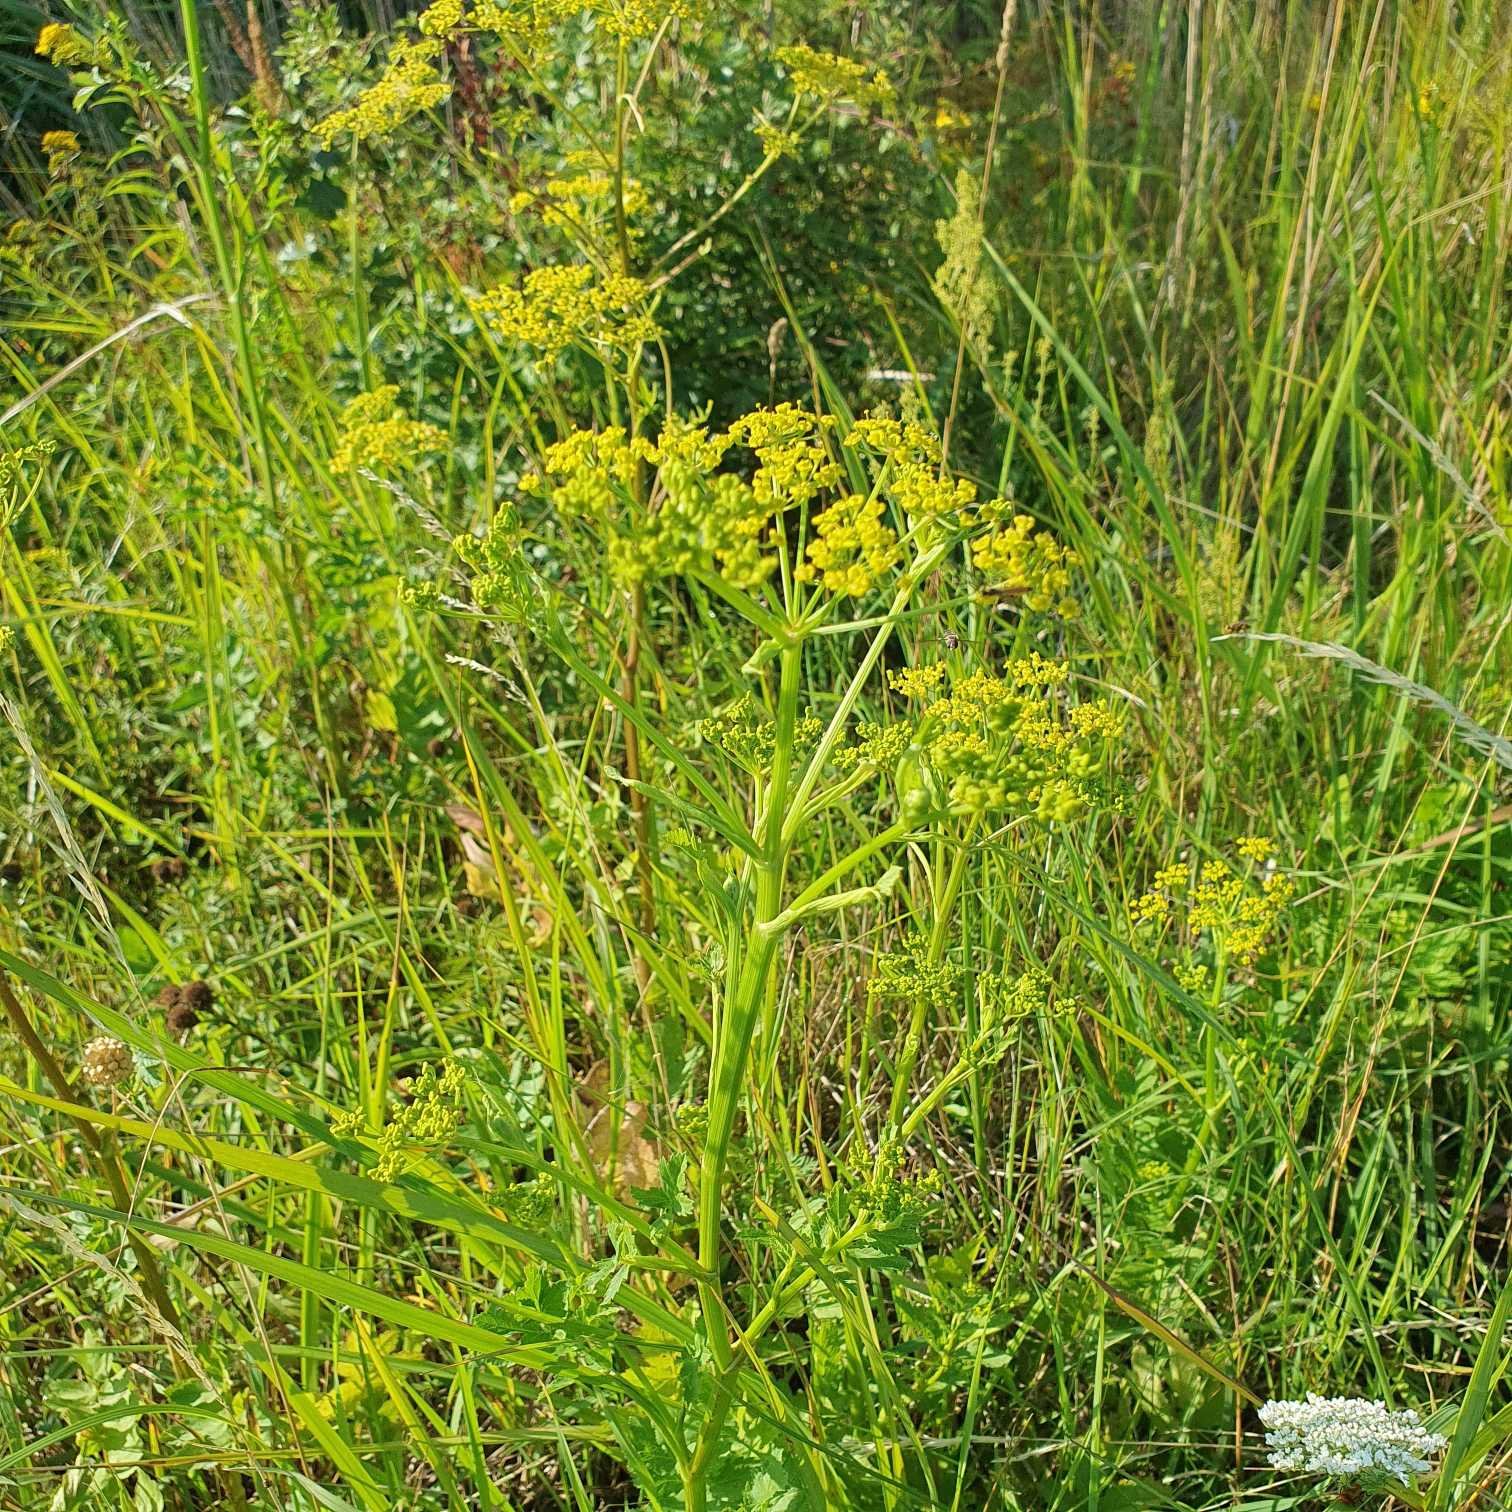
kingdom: Plantae
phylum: Tracheophyta
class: Magnoliopsida
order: Apiales
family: Apiaceae
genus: Pastinaca
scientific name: Pastinaca sativa
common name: Have-pastinak
